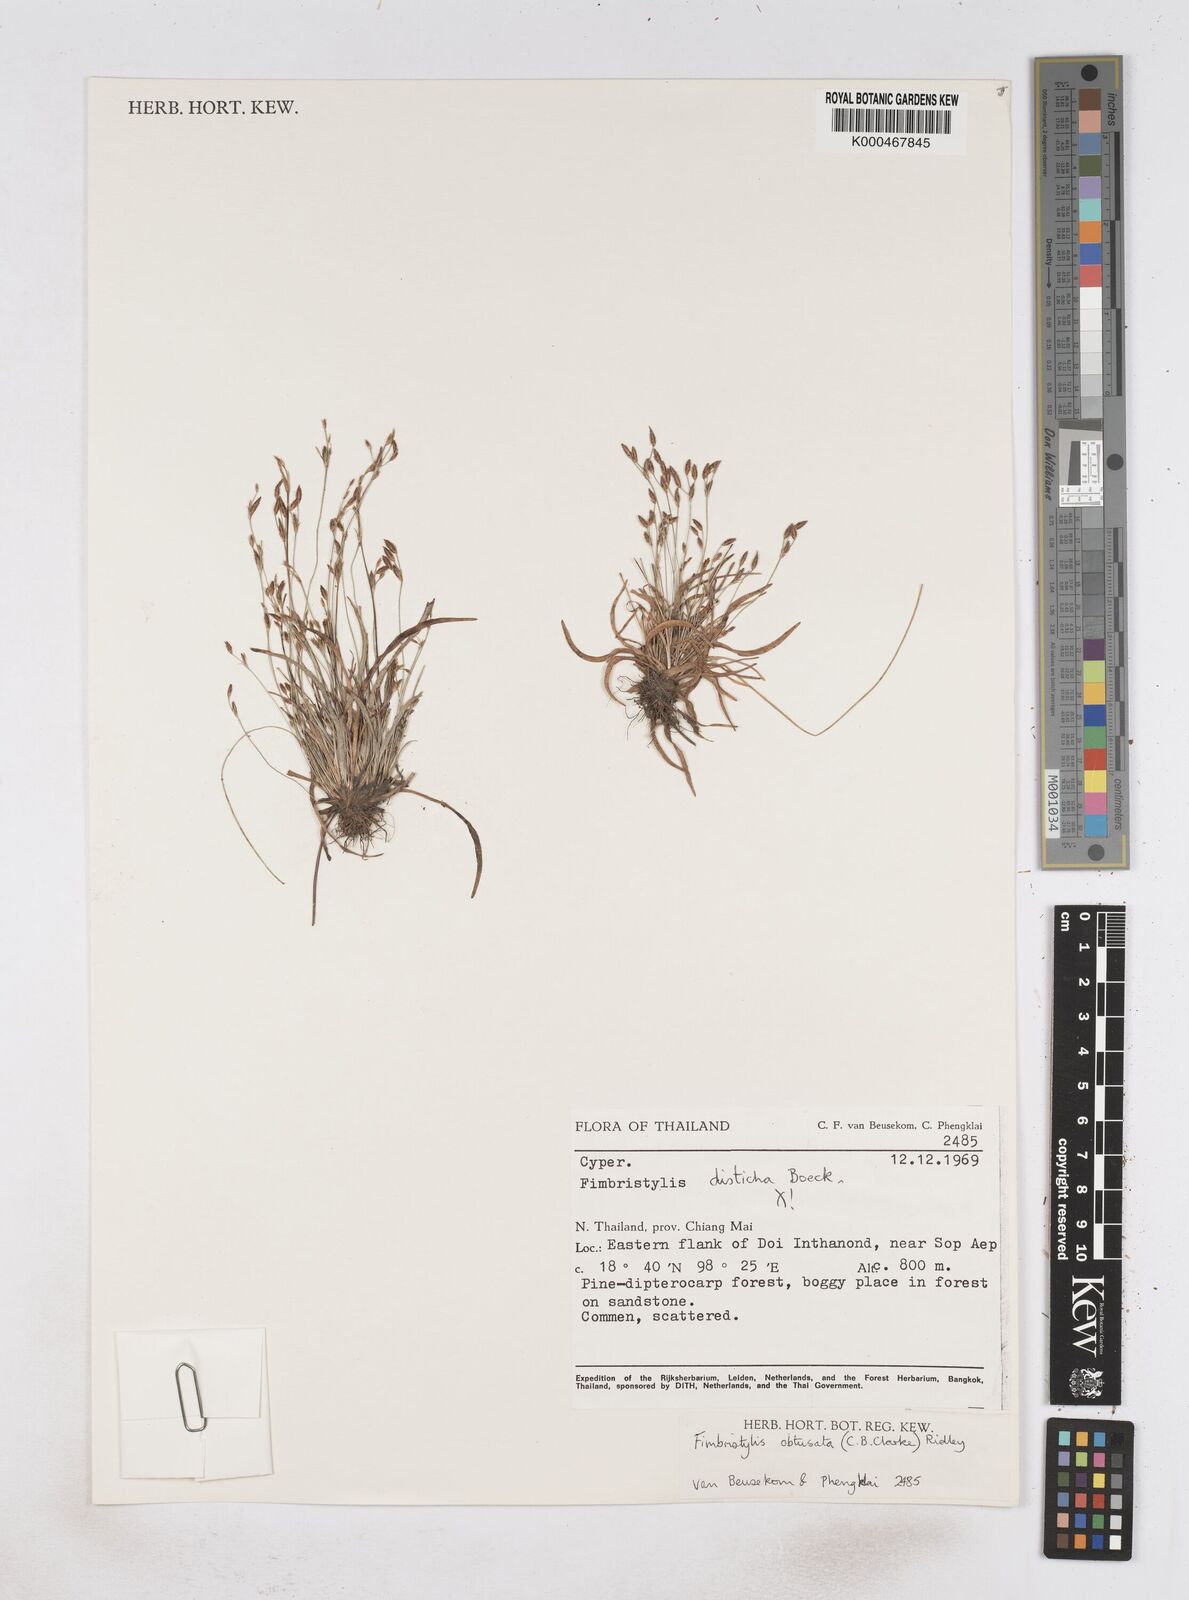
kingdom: Plantae
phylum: Tracheophyta
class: Liliopsida
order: Poales
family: Cyperaceae
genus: Fimbristylis
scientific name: Fimbristylis straminea
